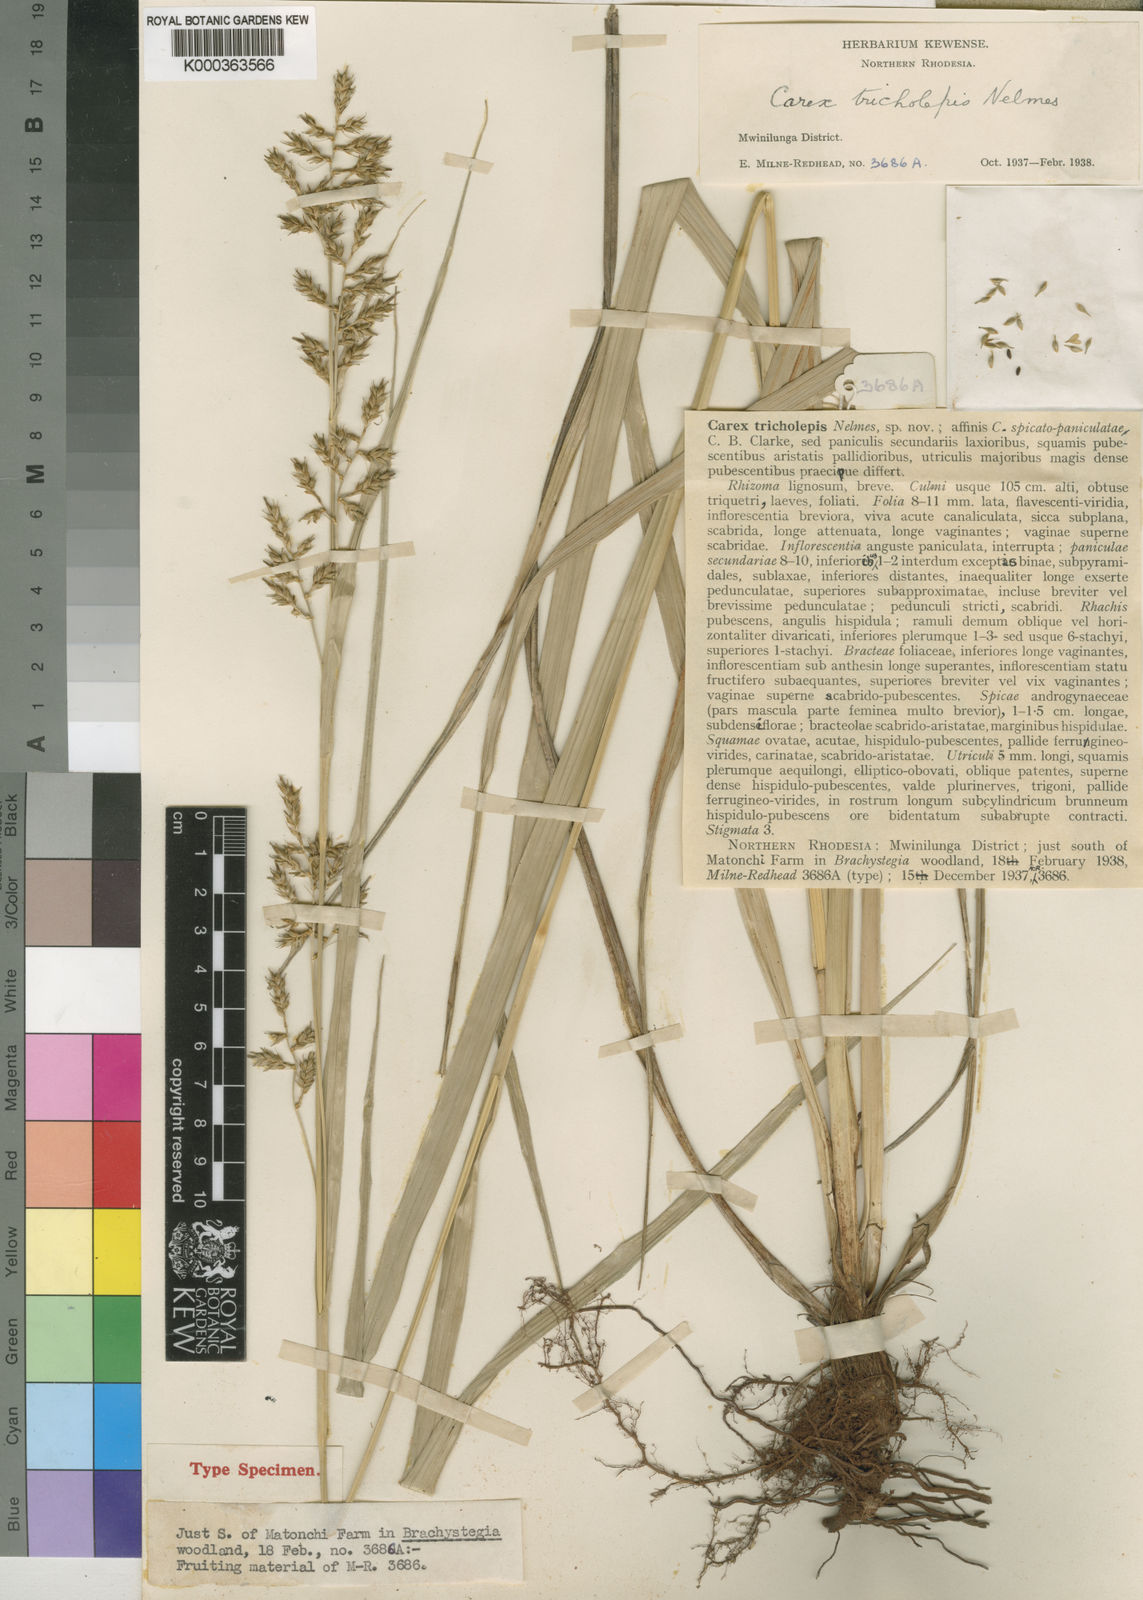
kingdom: Plantae
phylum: Tracheophyta
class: Liliopsida
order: Poales
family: Cyperaceae
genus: Carex
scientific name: Carex tricholepis
